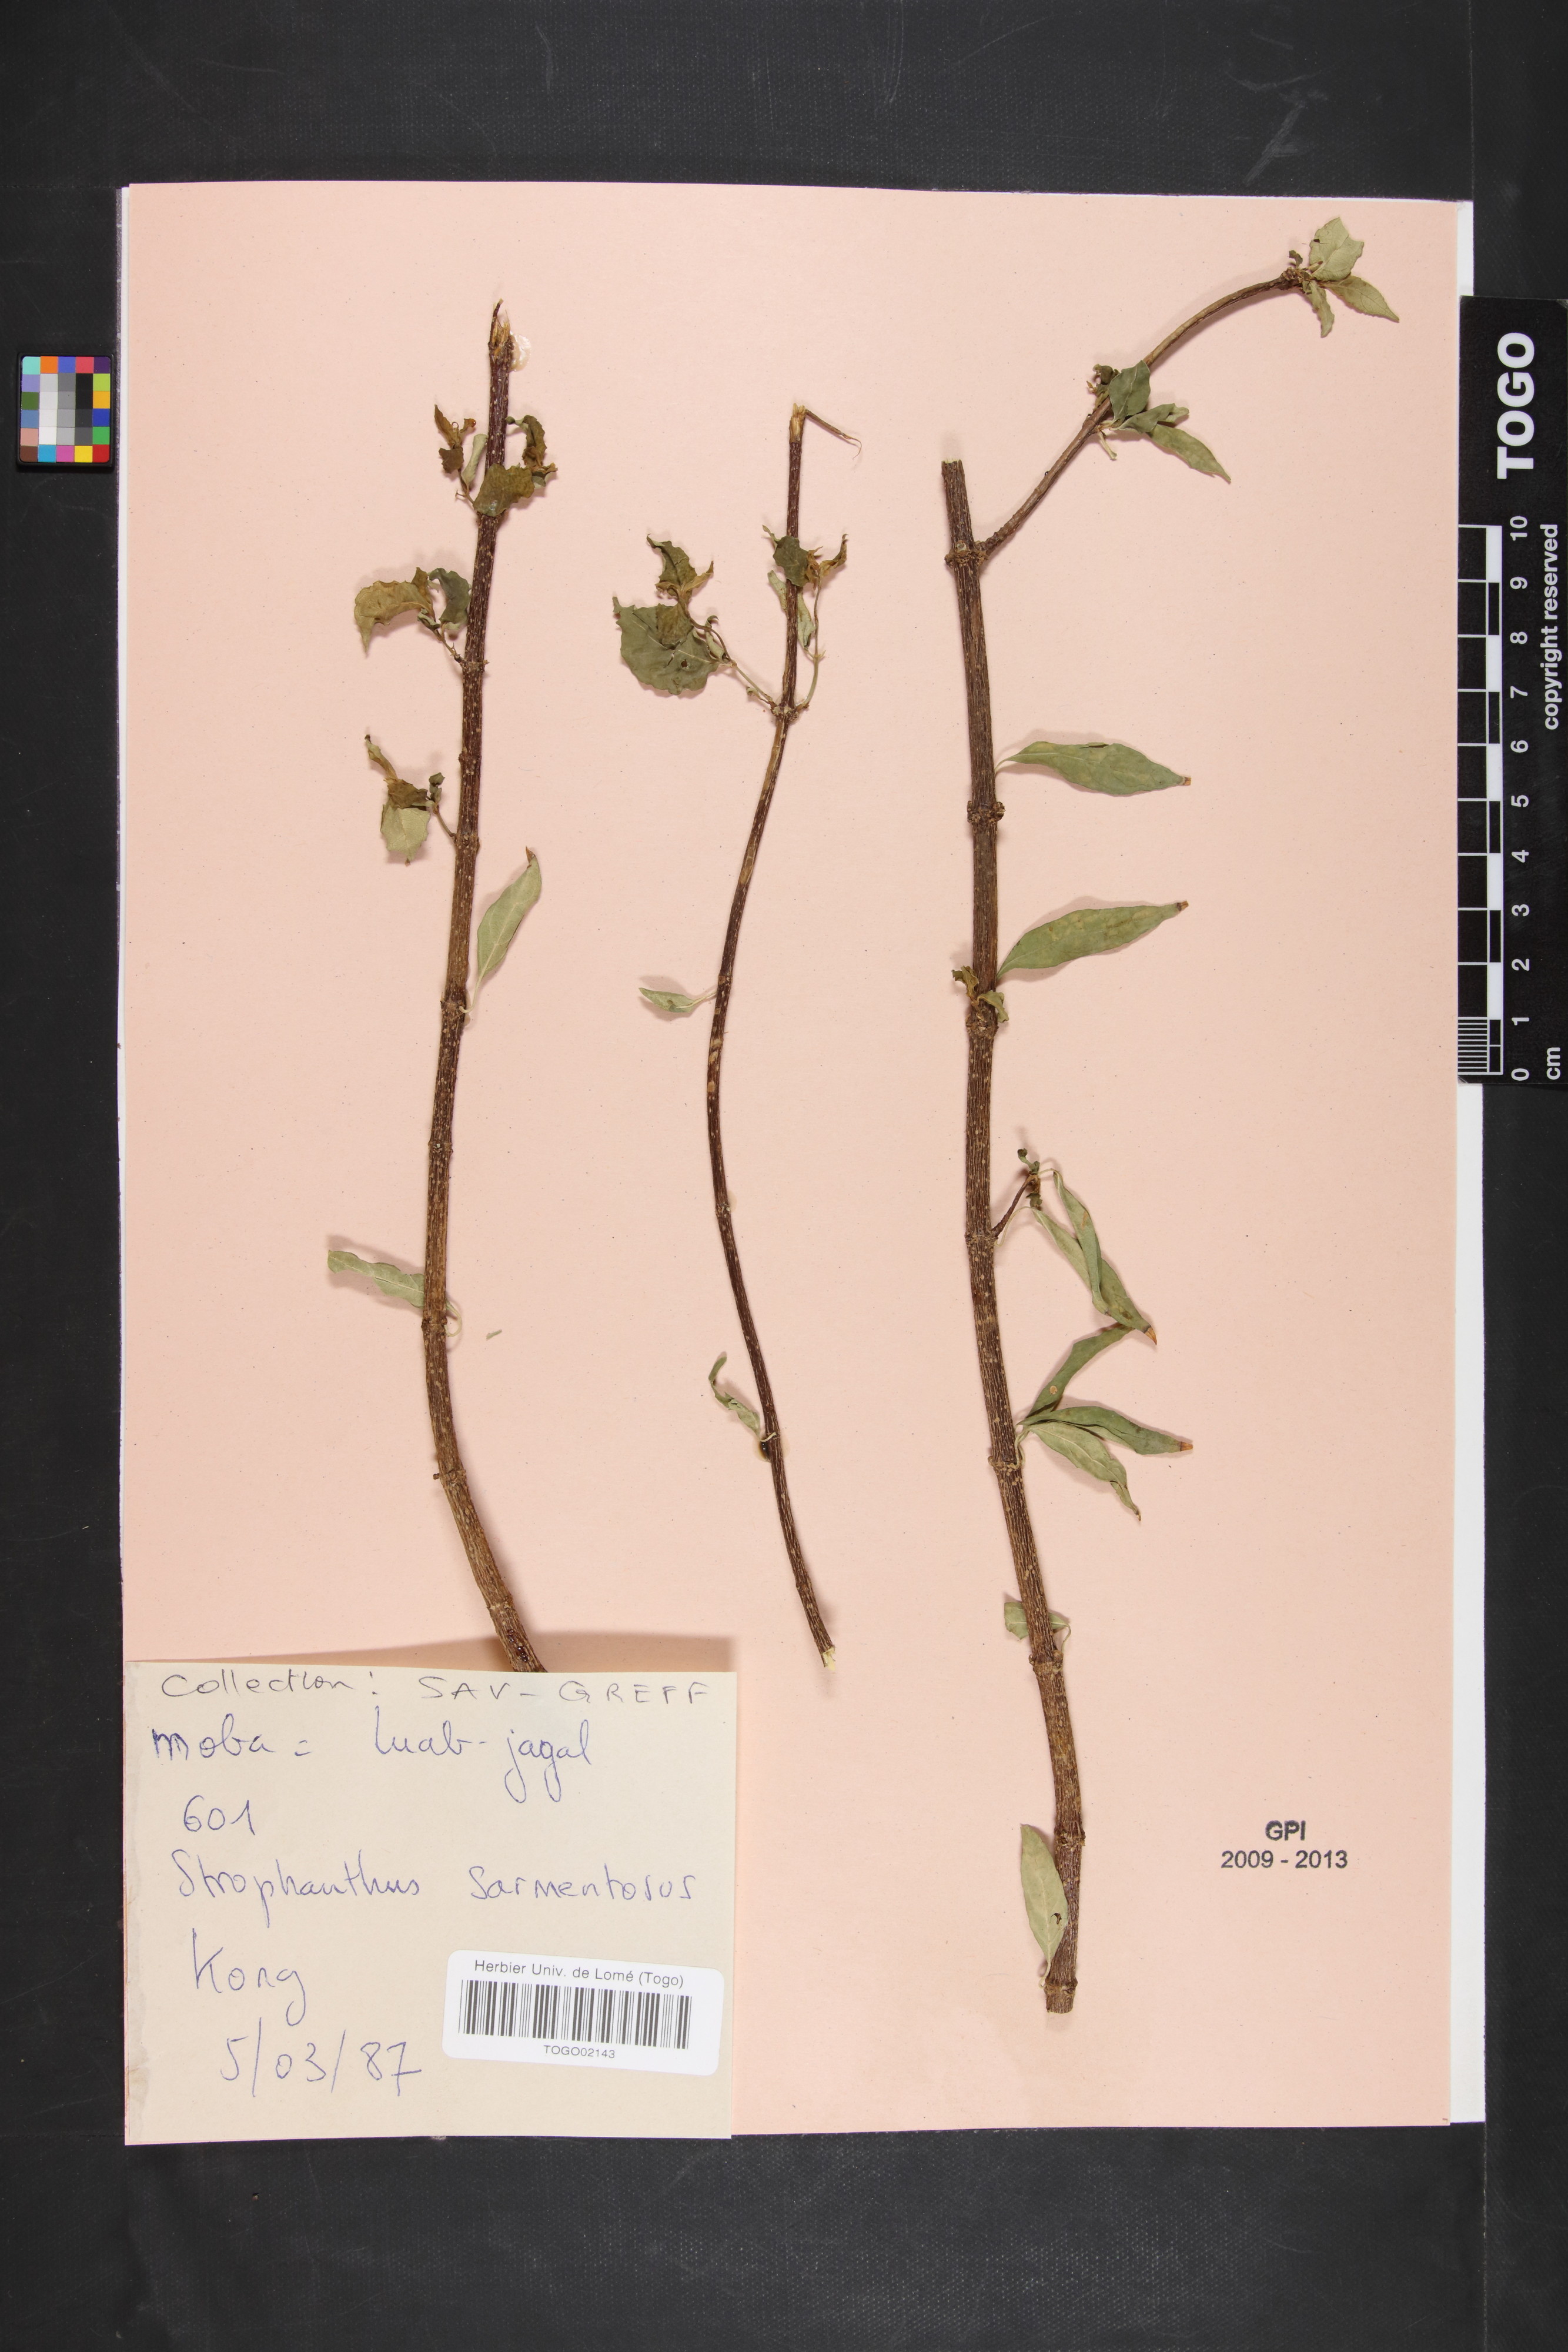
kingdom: Plantae
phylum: Tracheophyta
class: Magnoliopsida
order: Gentianales
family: Apocynaceae
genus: Strophanthus
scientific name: Strophanthus sarmentosus
